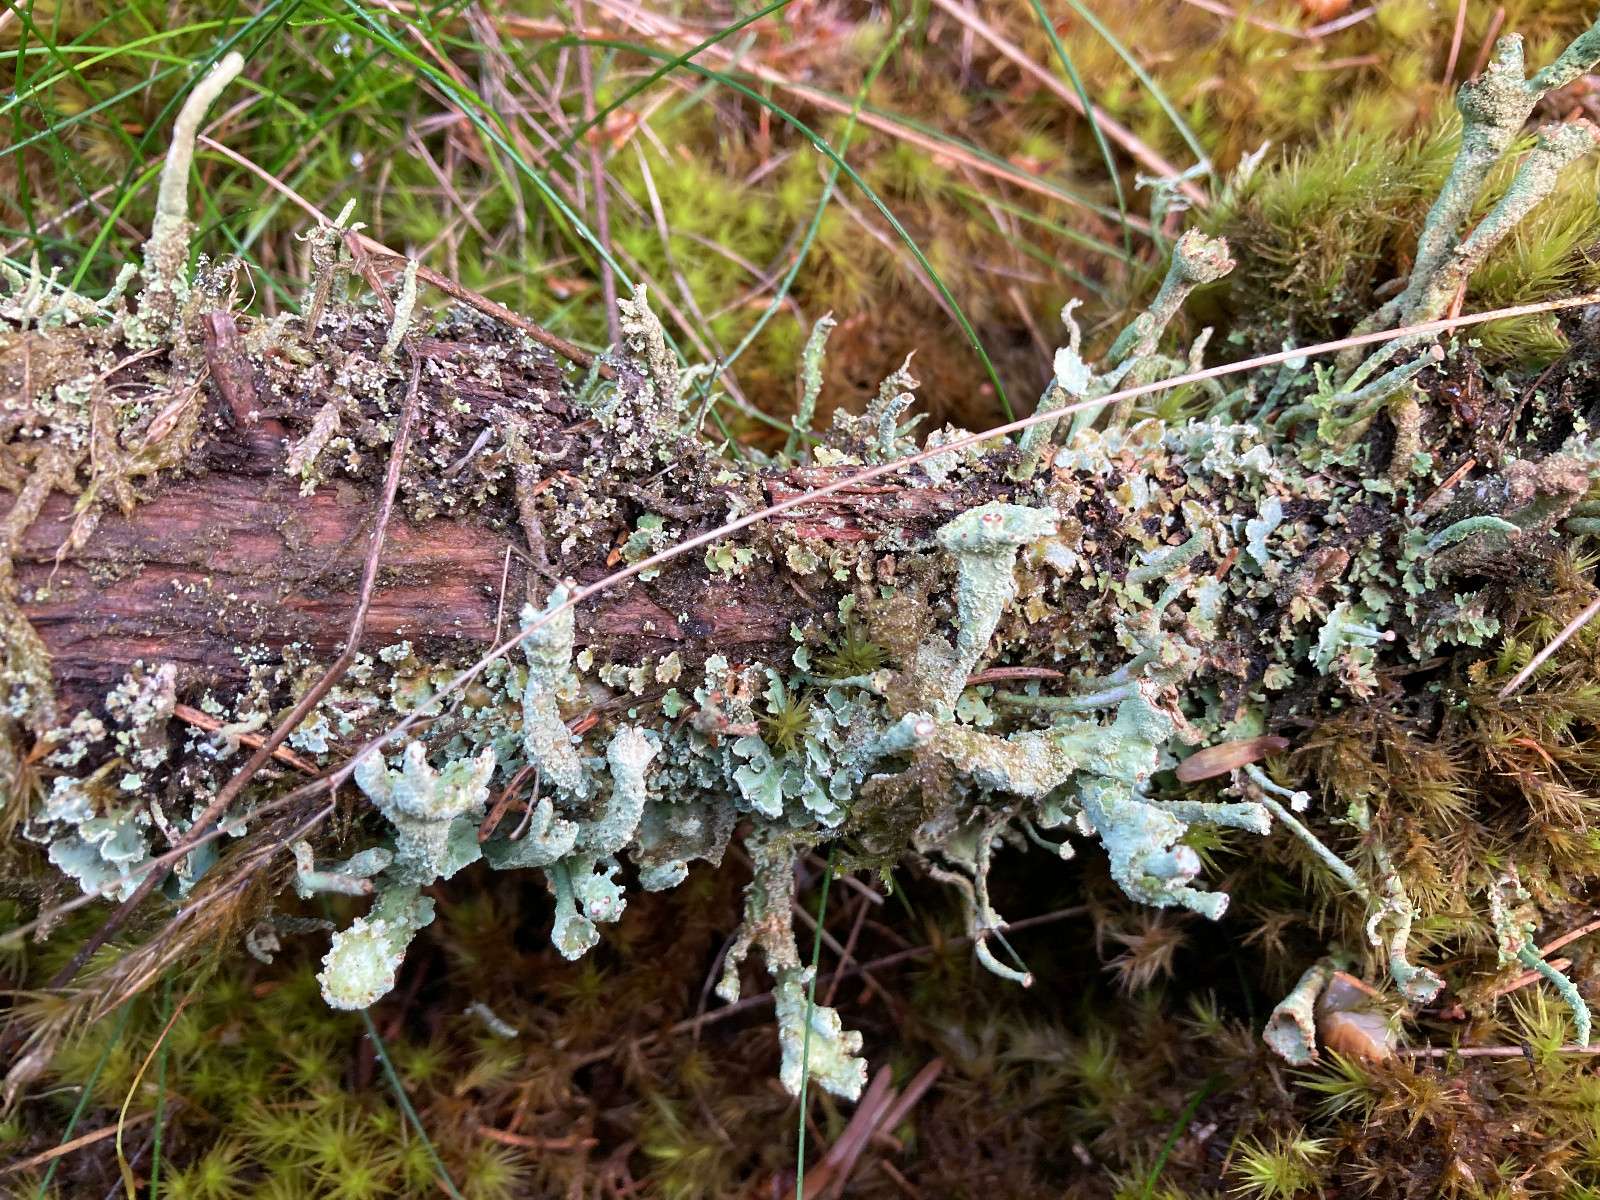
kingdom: Fungi
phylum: Ascomycota
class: Lecanoromycetes
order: Lecanorales
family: Cladoniaceae
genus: Cladonia
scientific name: Cladonia digitata
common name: finger-bægerlav
